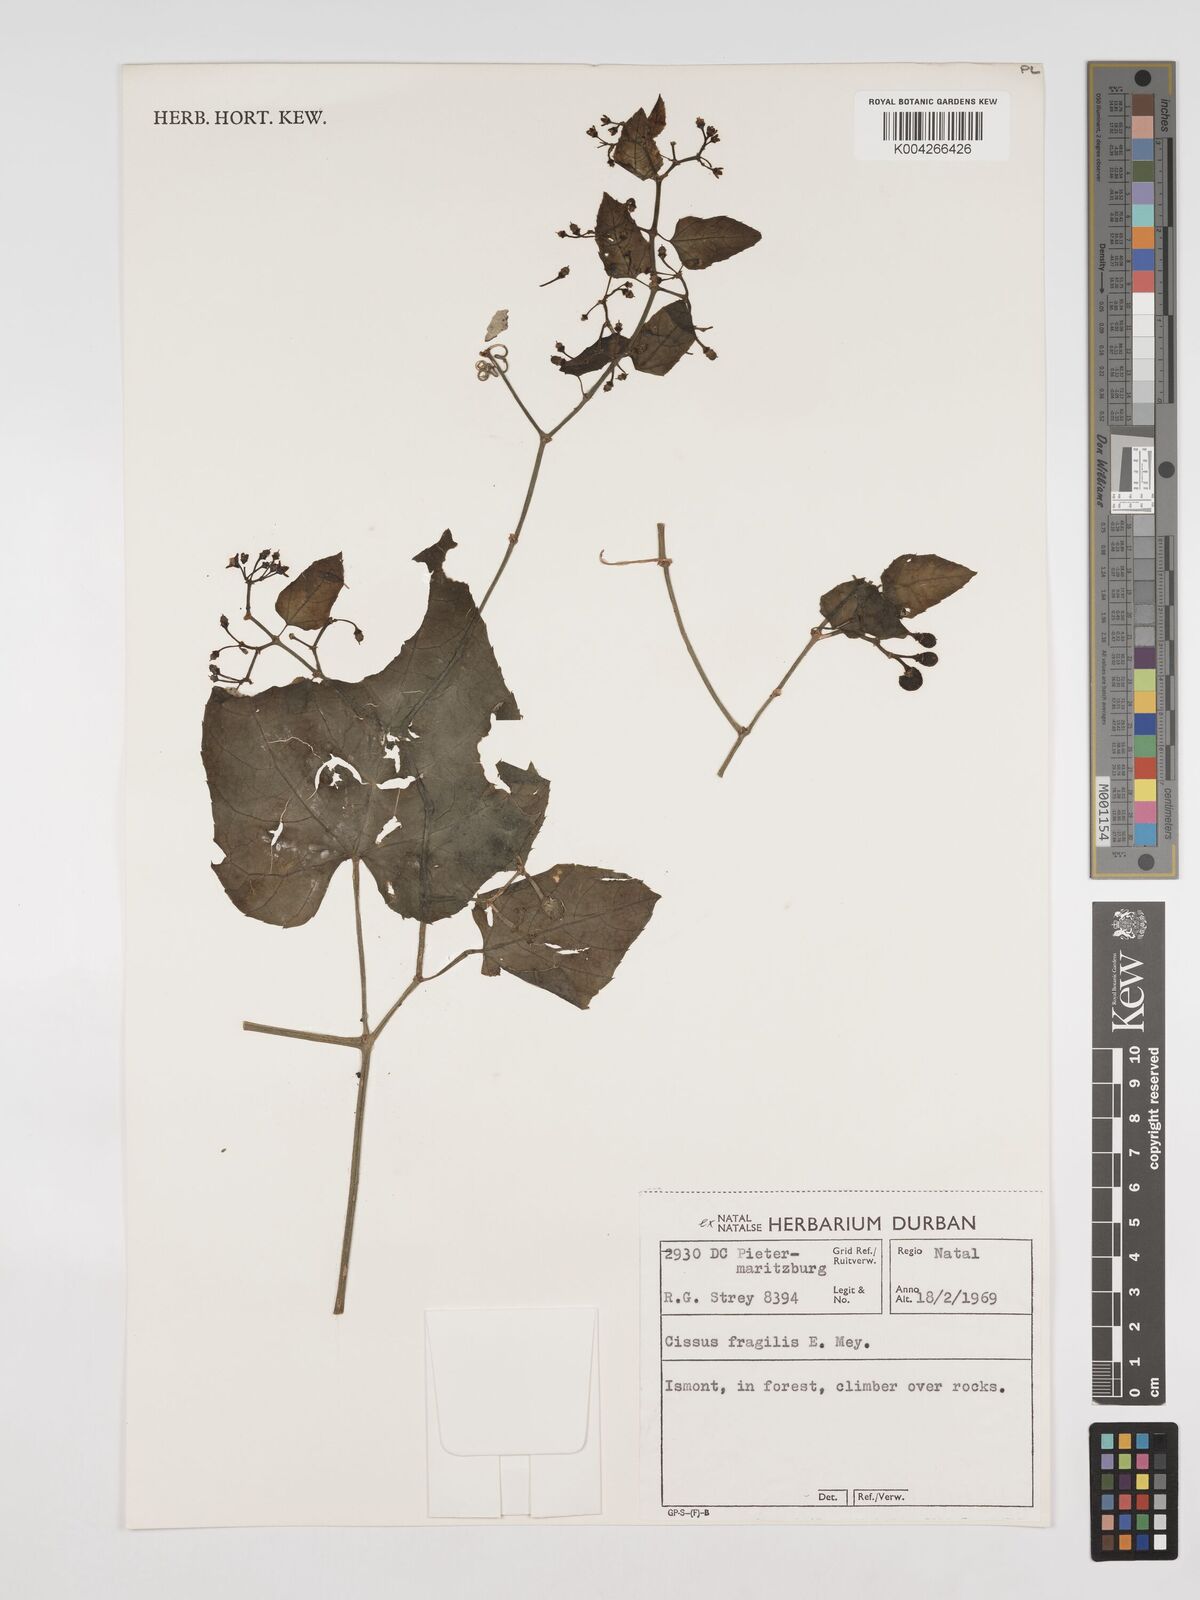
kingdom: Plantae
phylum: Tracheophyta
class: Magnoliopsida
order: Vitales
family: Vitaceae
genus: Cissus
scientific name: Cissus fragilis
